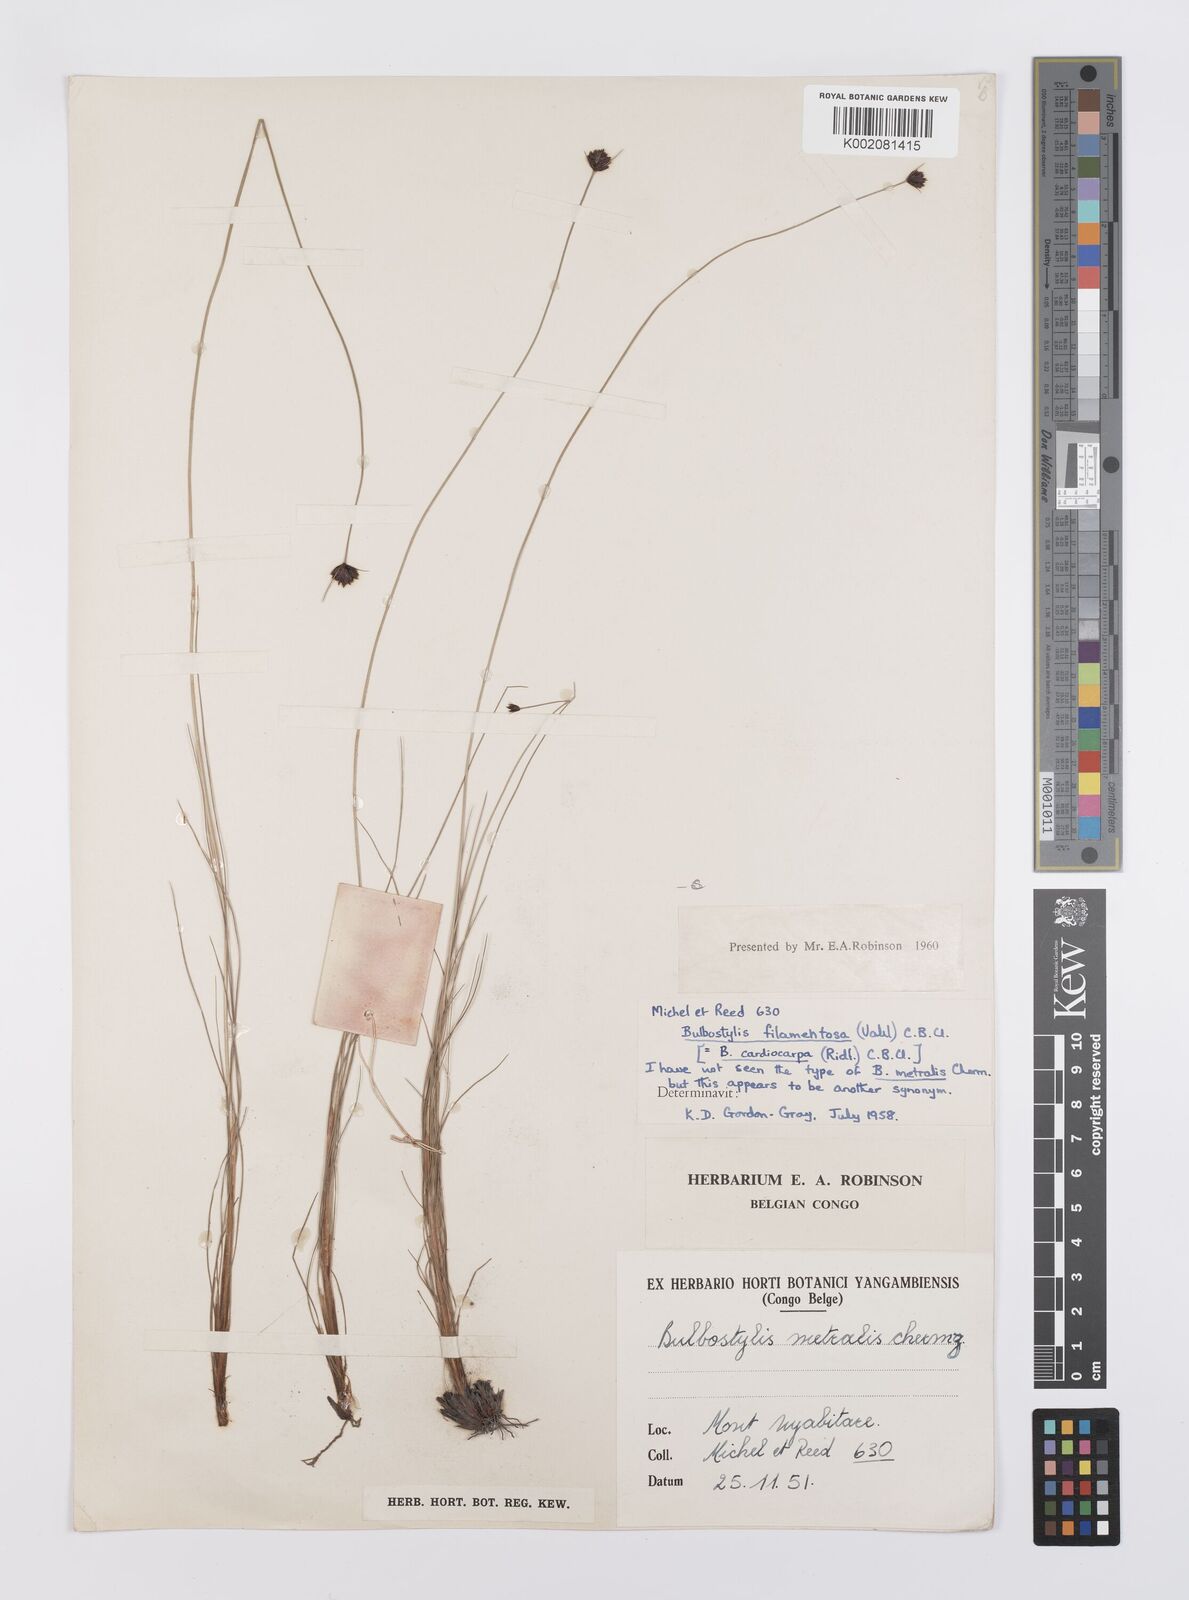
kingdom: Plantae
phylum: Tracheophyta
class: Liliopsida
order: Poales
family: Cyperaceae
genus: Bulbostylis
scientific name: Bulbostylis filamentosa
